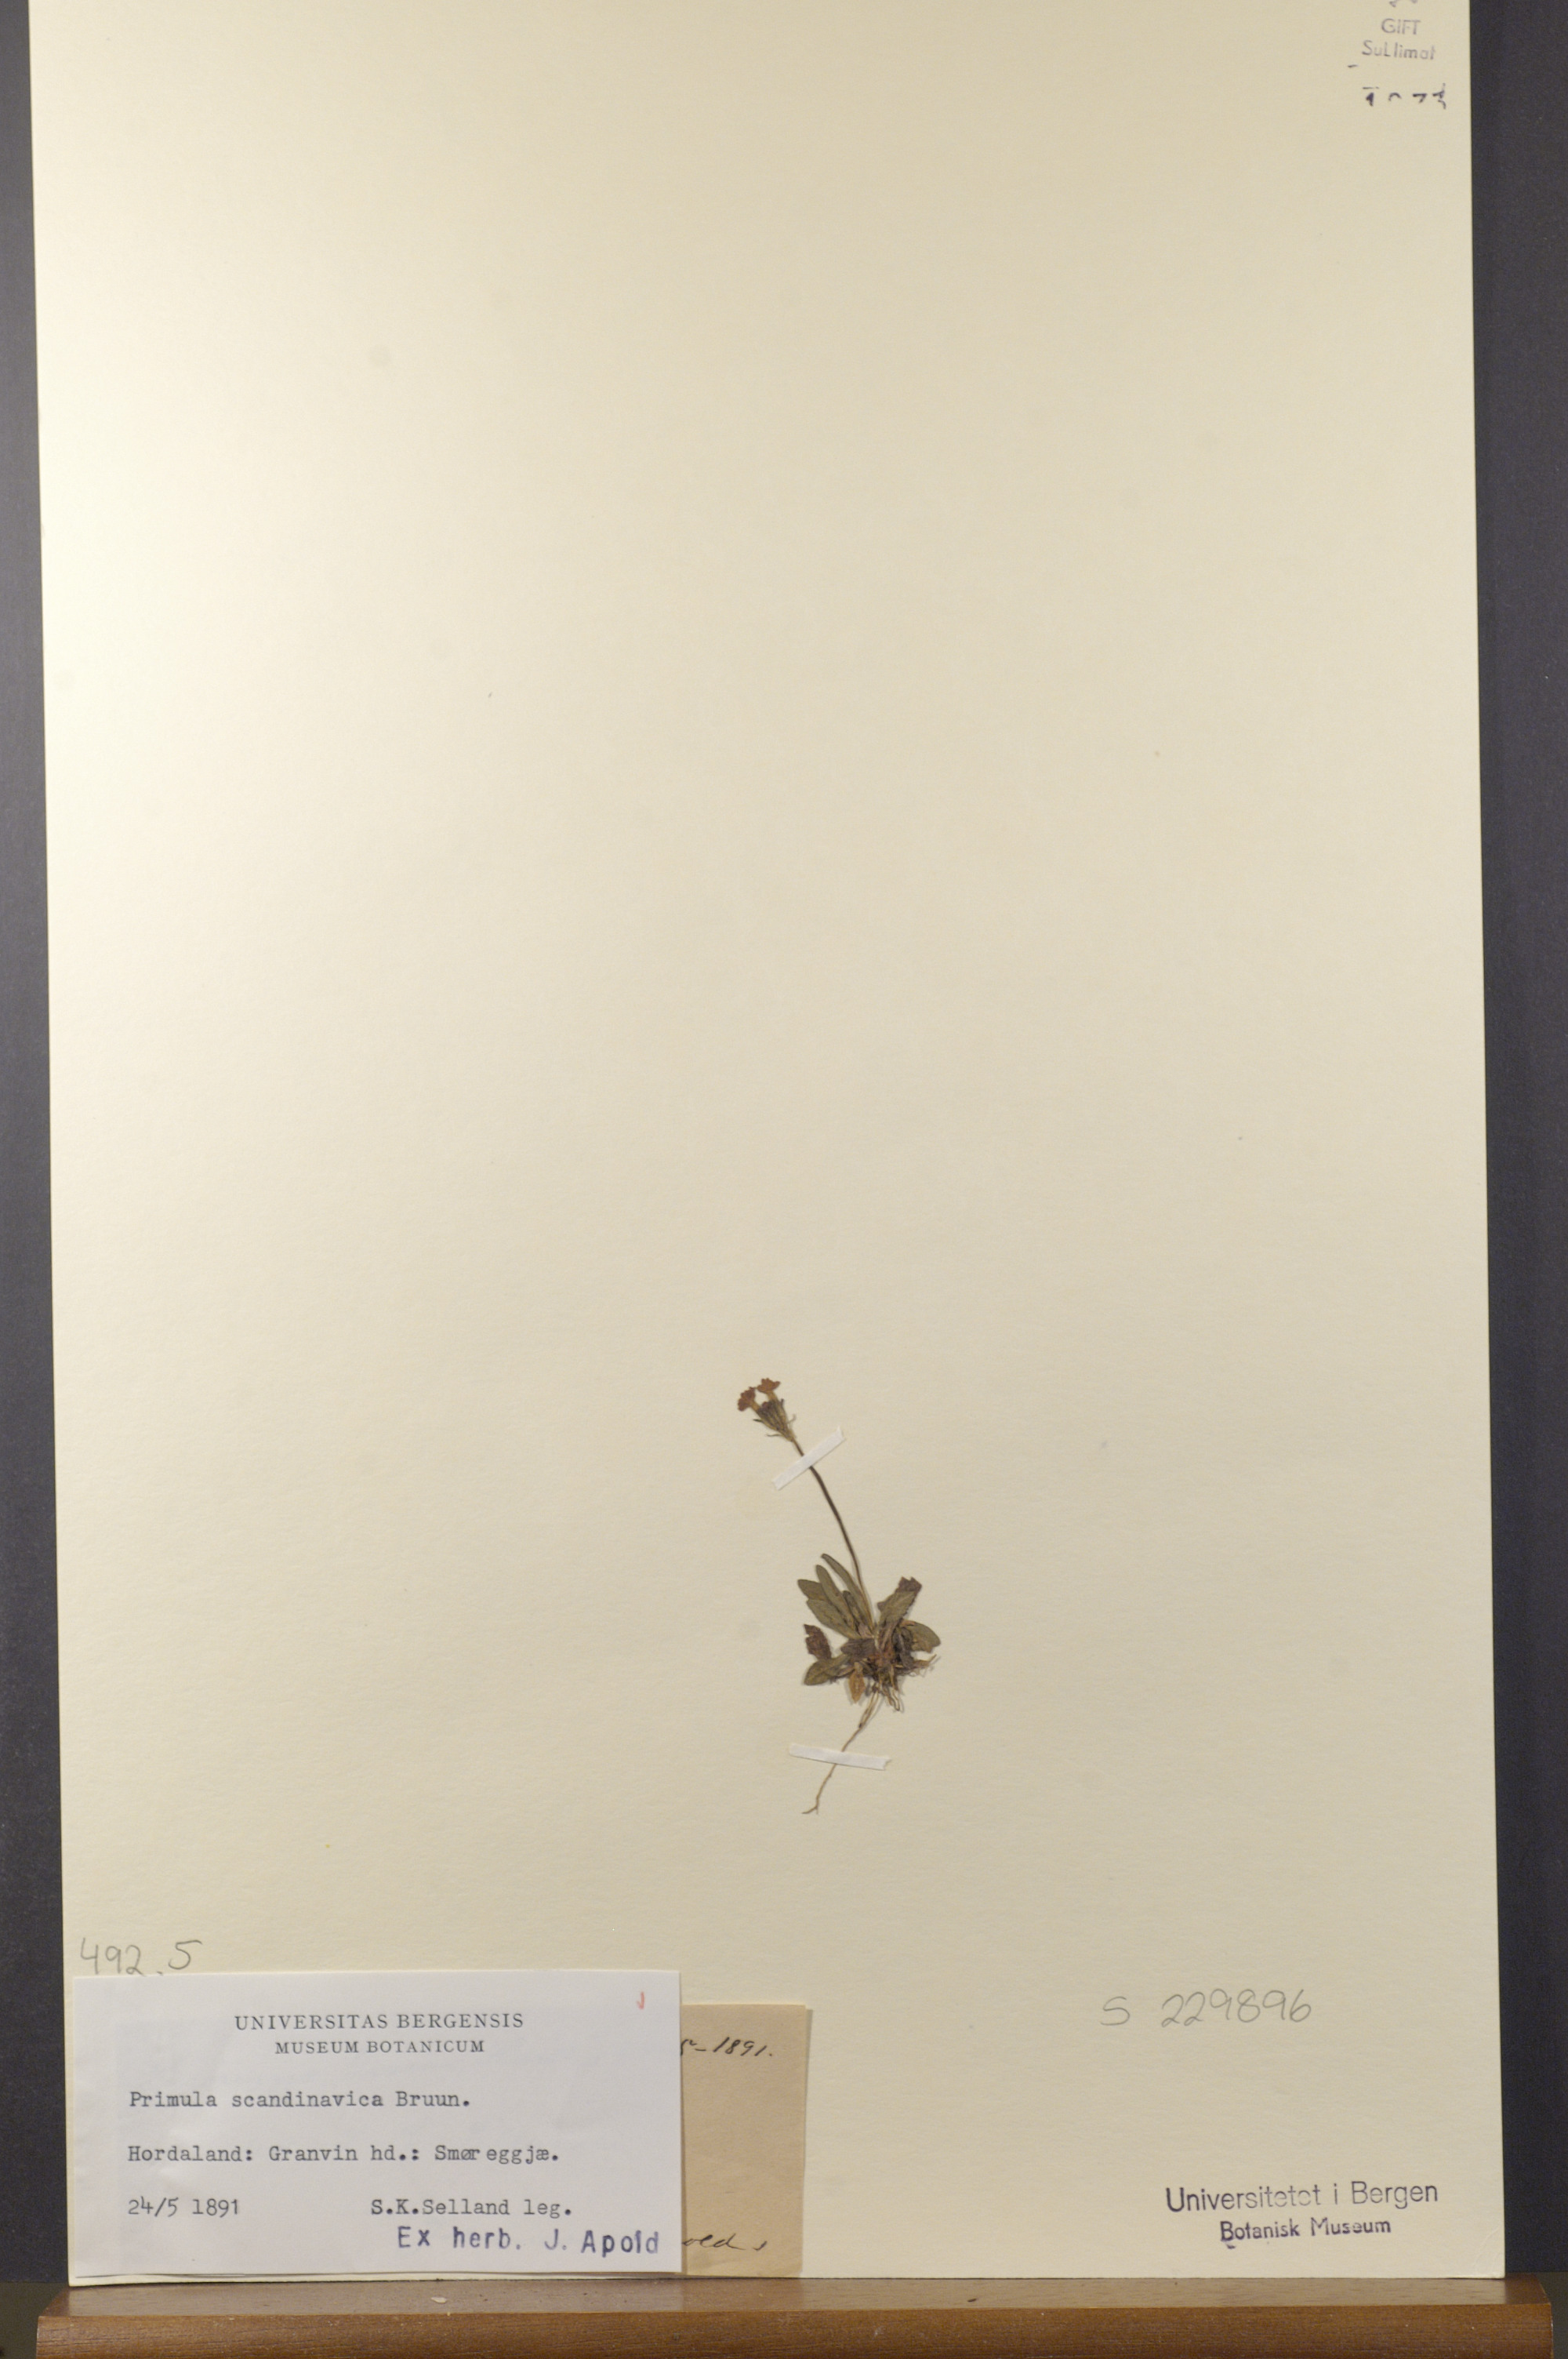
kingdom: Plantae
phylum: Tracheophyta
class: Magnoliopsida
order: Ericales
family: Primulaceae
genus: Primula
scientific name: Primula scandinavica
